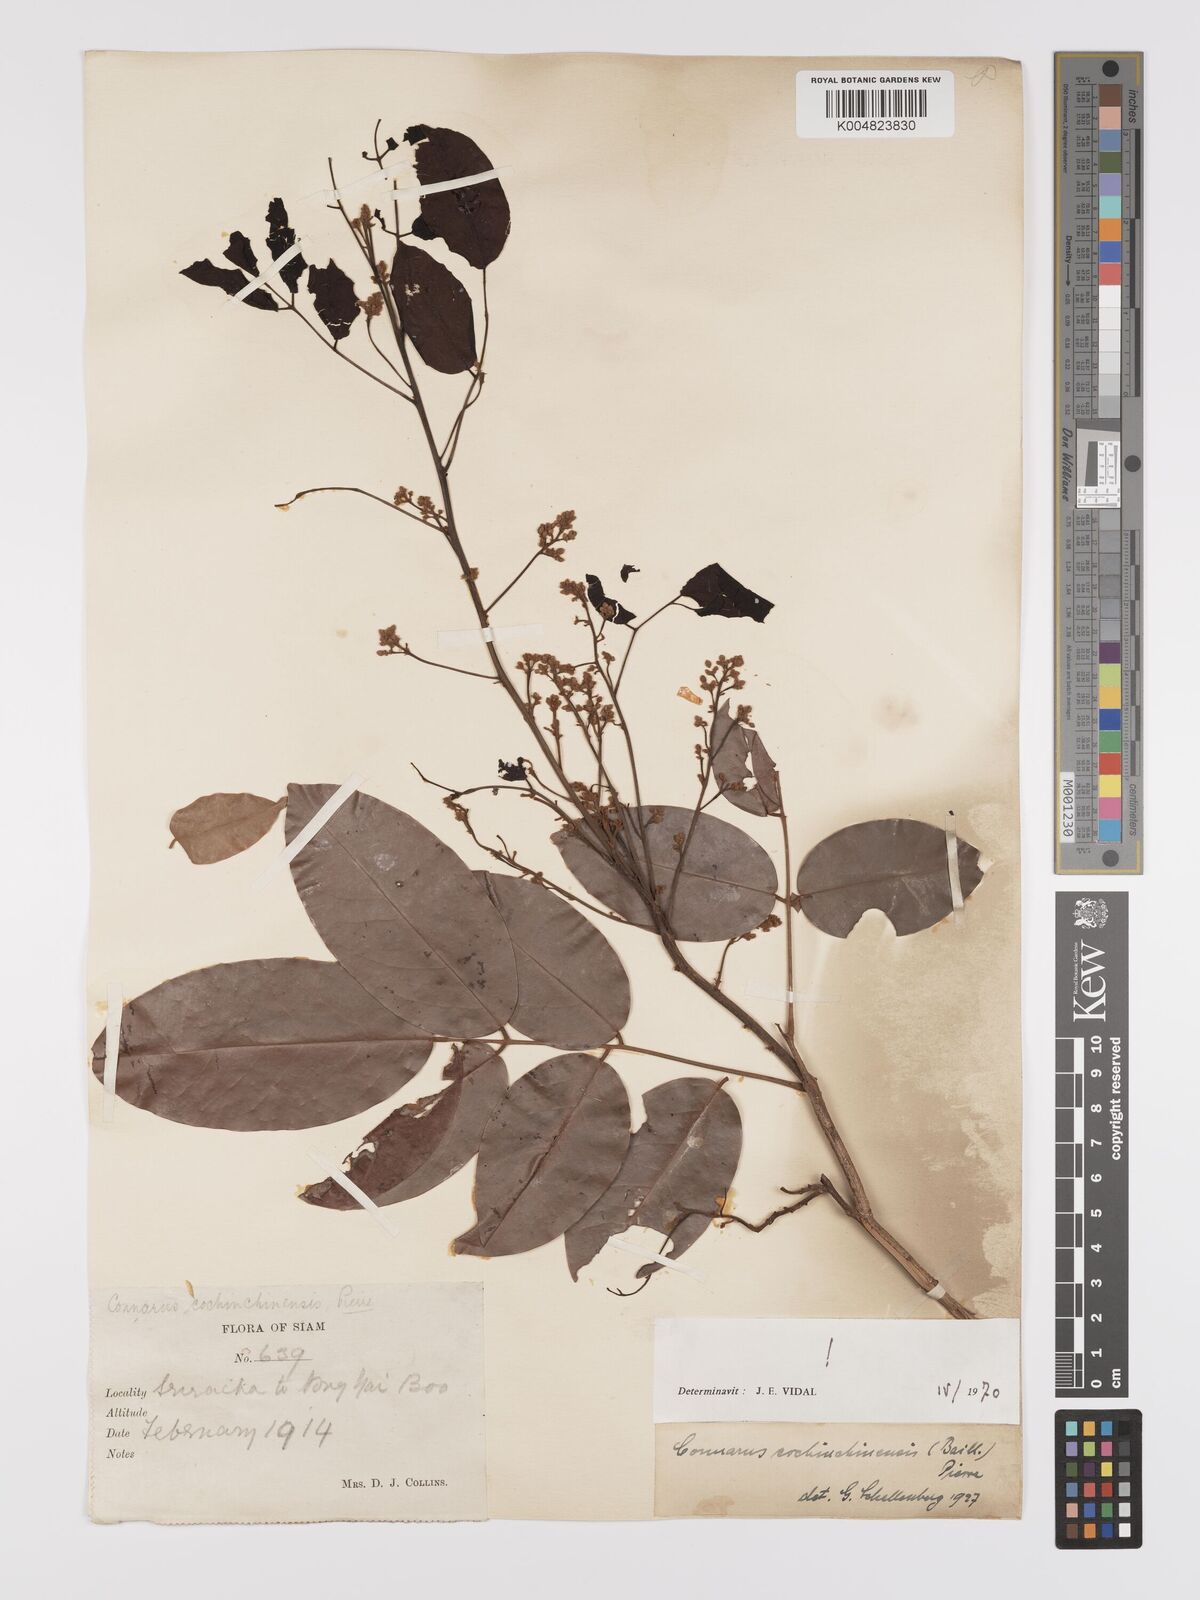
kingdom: Plantae
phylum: Tracheophyta
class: Magnoliopsida
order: Oxalidales
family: Connaraceae
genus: Connarus
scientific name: Connarus cochinchinensis
